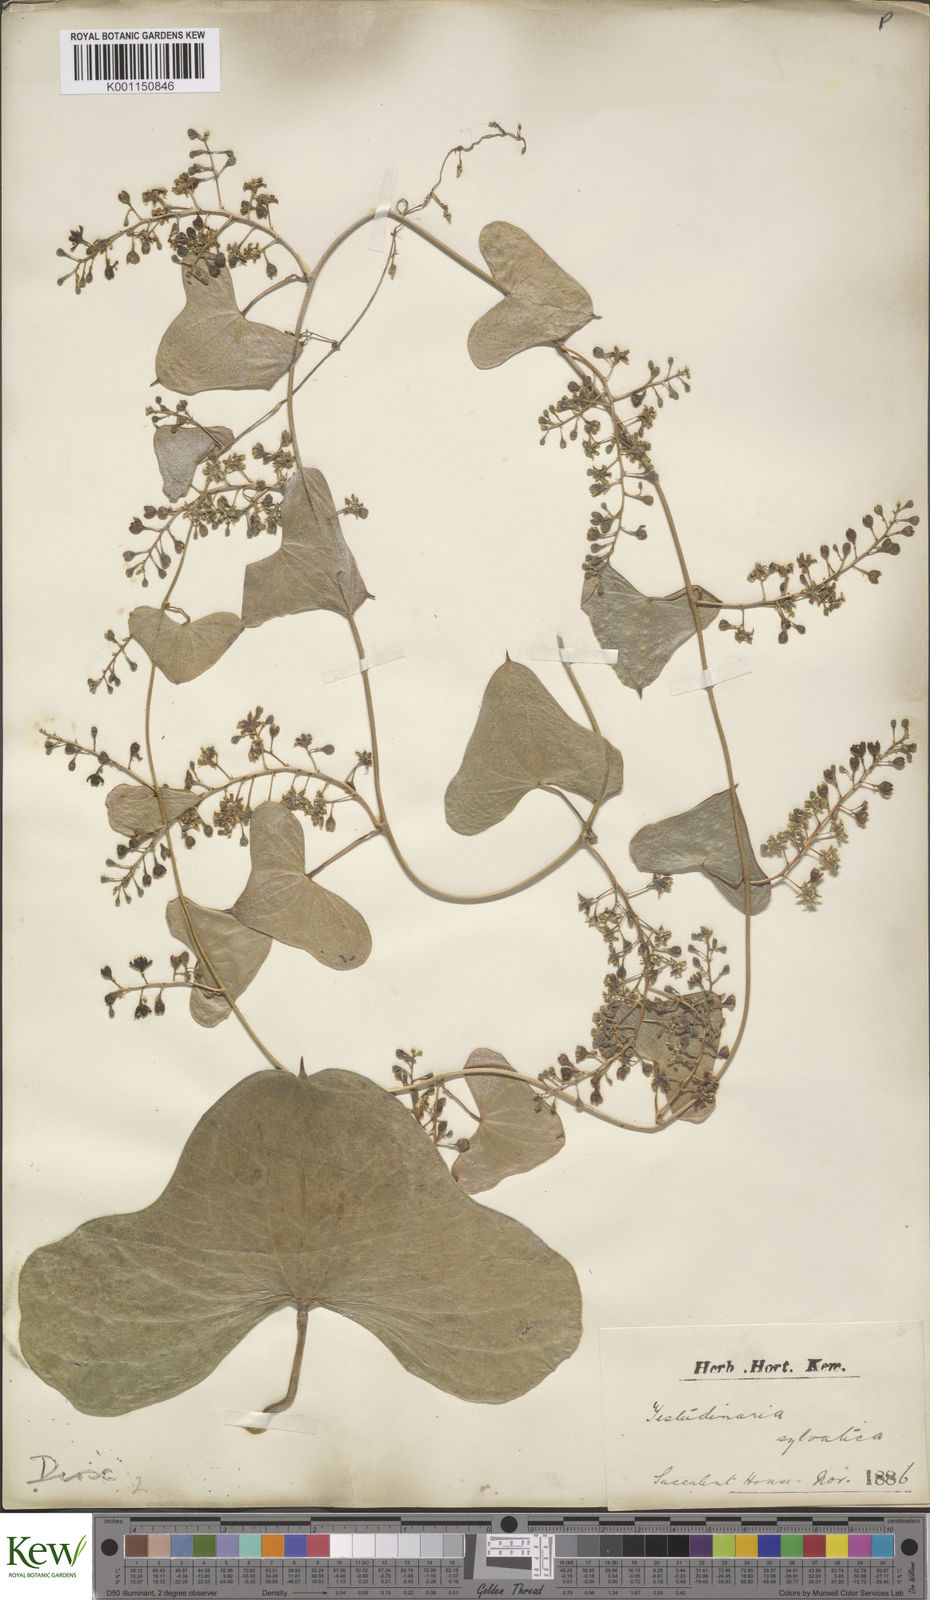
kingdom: Plantae
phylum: Tracheophyta
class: Liliopsida
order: Dioscoreales
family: Dioscoreaceae
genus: Dioscorea
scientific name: Dioscorea sylvatica
